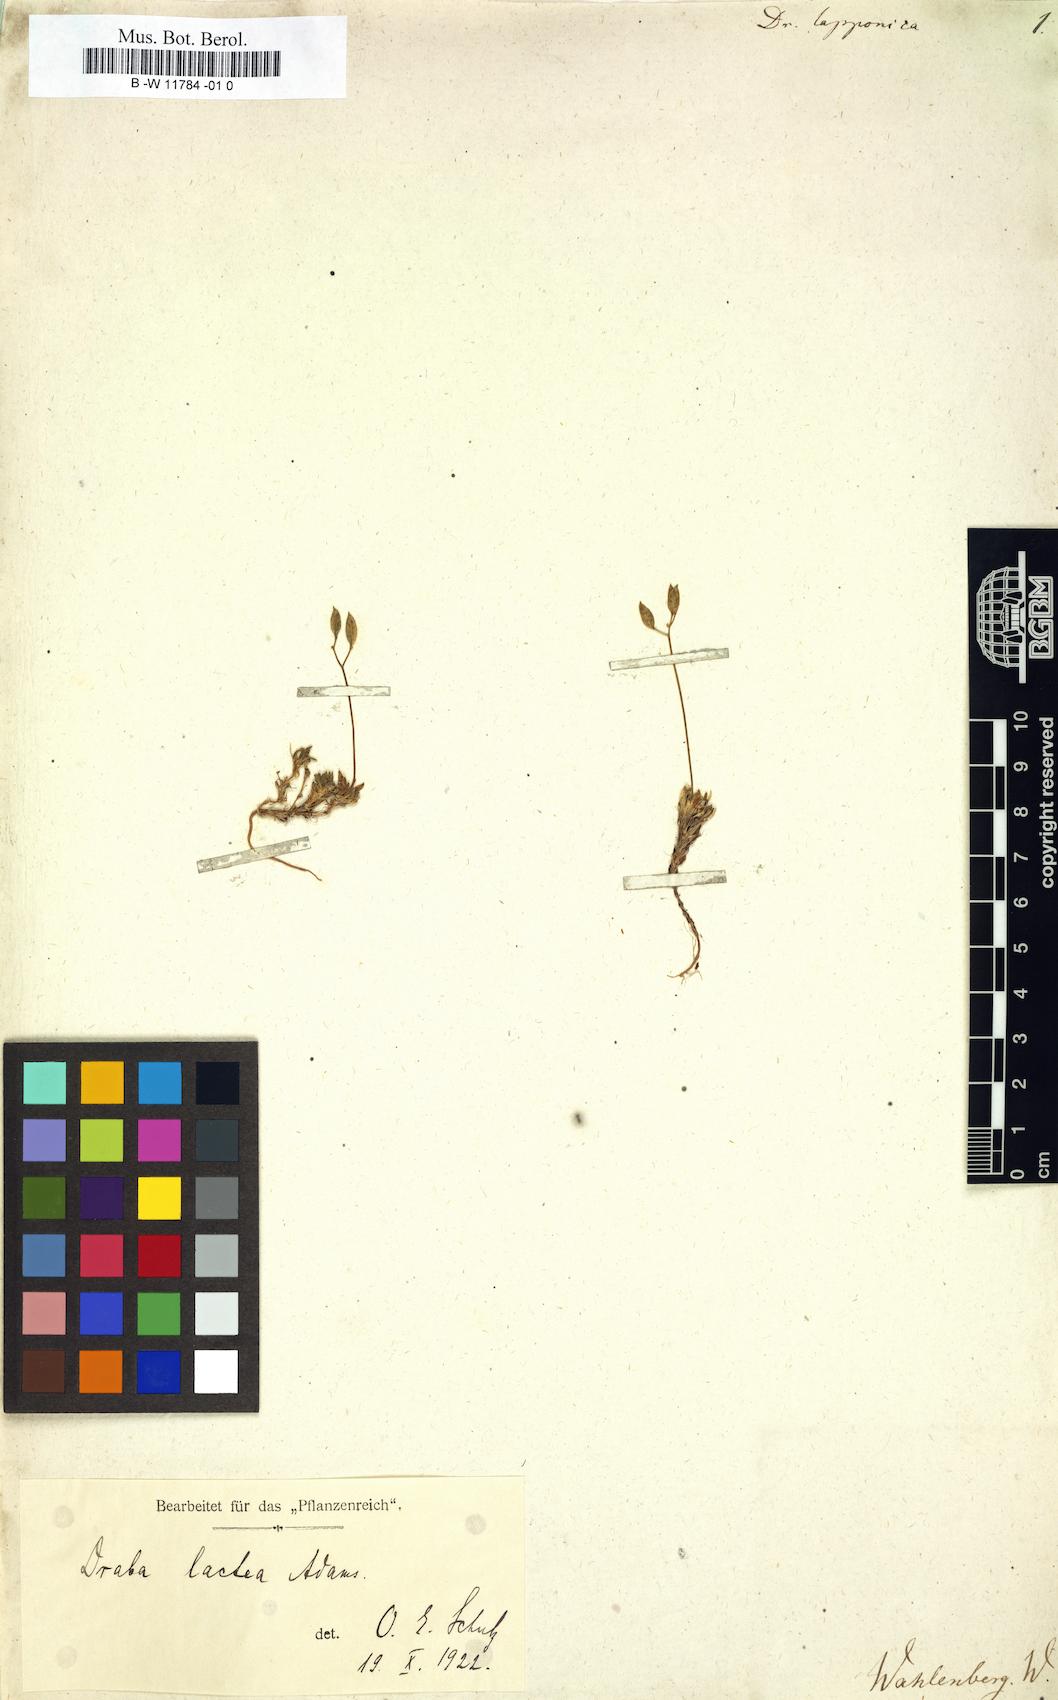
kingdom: Plantae
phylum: Tracheophyta
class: Magnoliopsida
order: Brassicales
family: Brassicaceae
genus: Draba
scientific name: Draba
